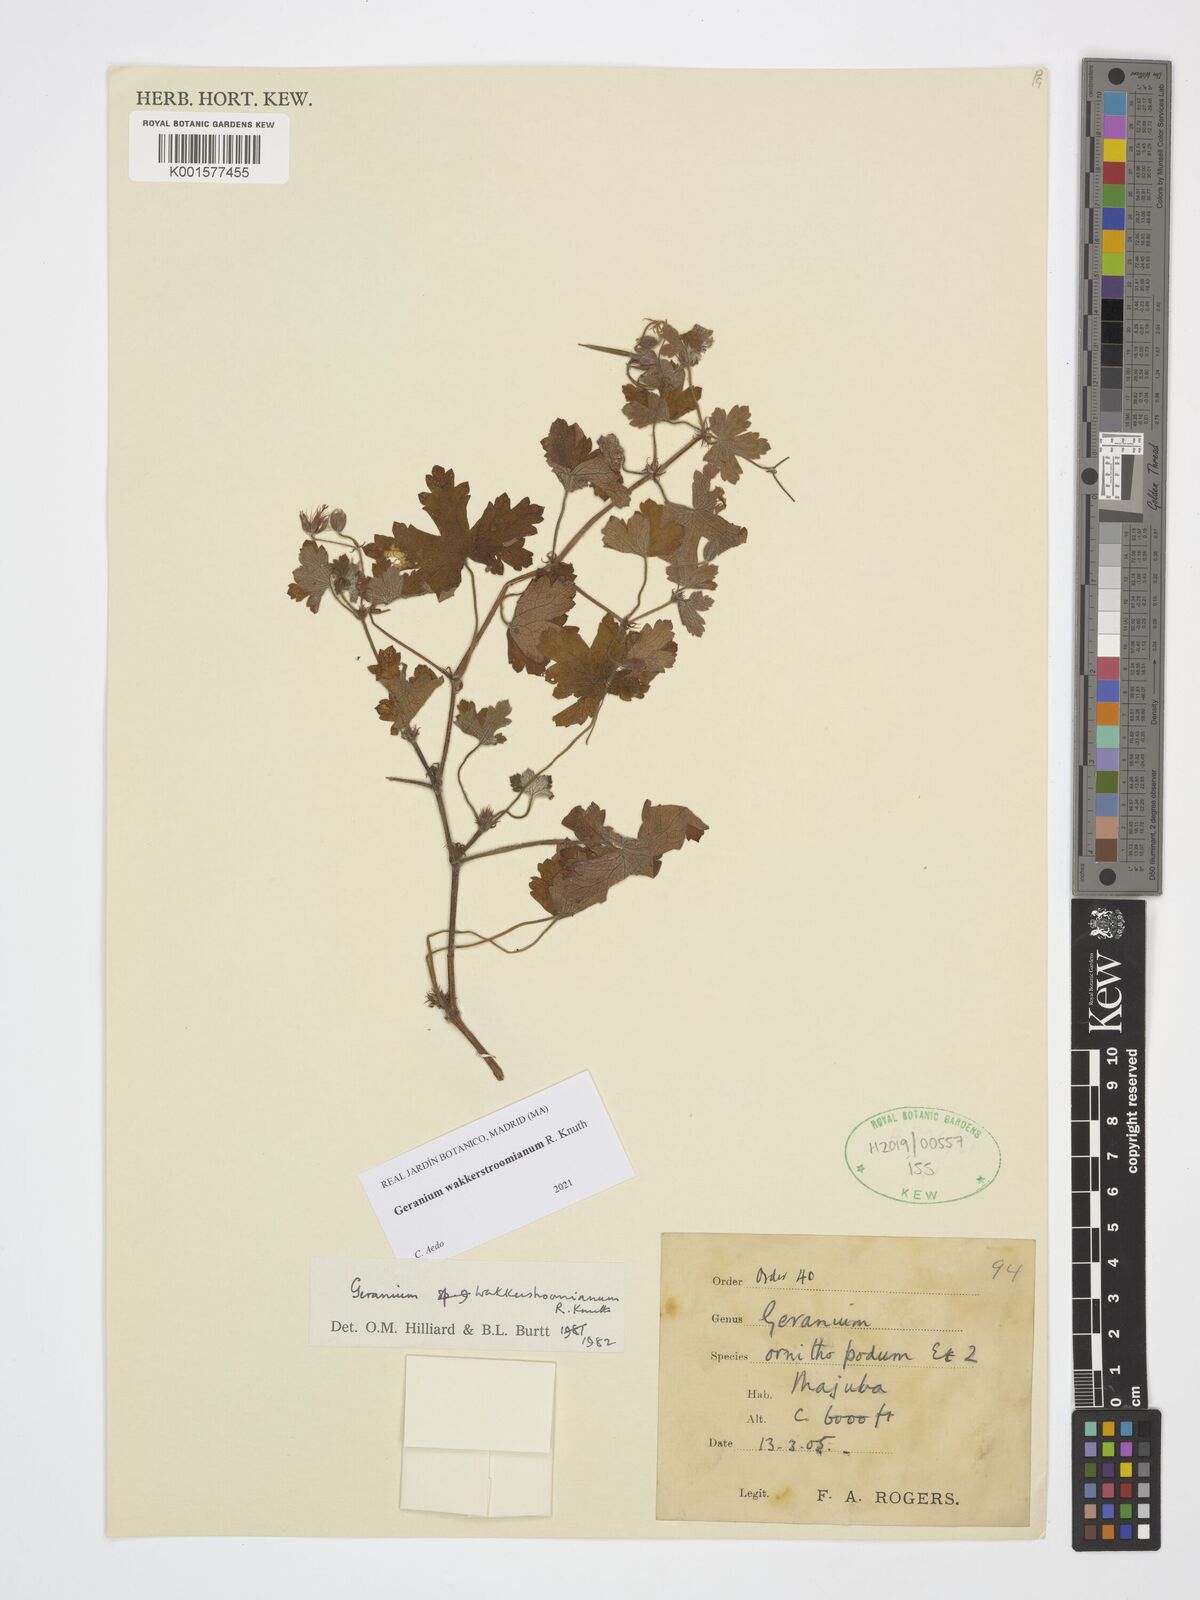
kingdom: Plantae
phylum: Tracheophyta
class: Magnoliopsida
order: Geraniales
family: Geraniaceae
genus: Geranium
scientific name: Geranium wakkerstroomianum
